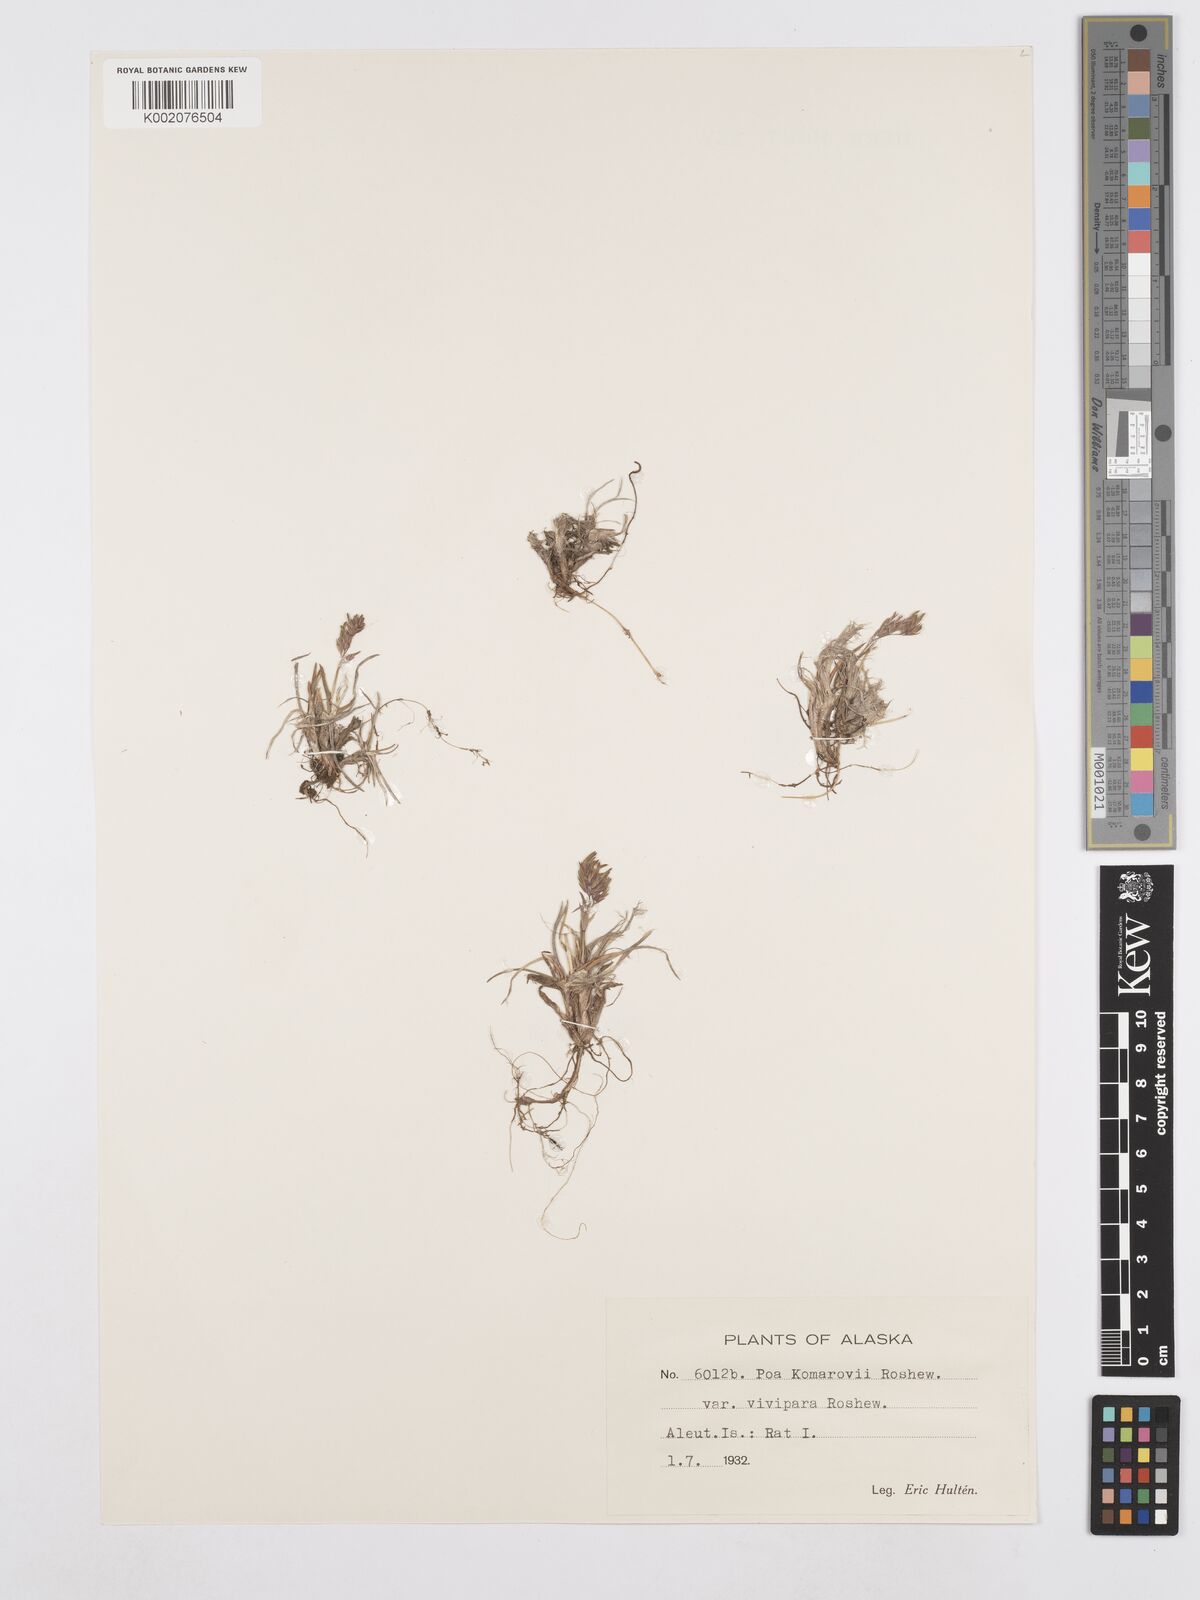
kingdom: Plantae
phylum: Tracheophyta
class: Liliopsida
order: Poales
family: Poaceae
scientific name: Poaceae
